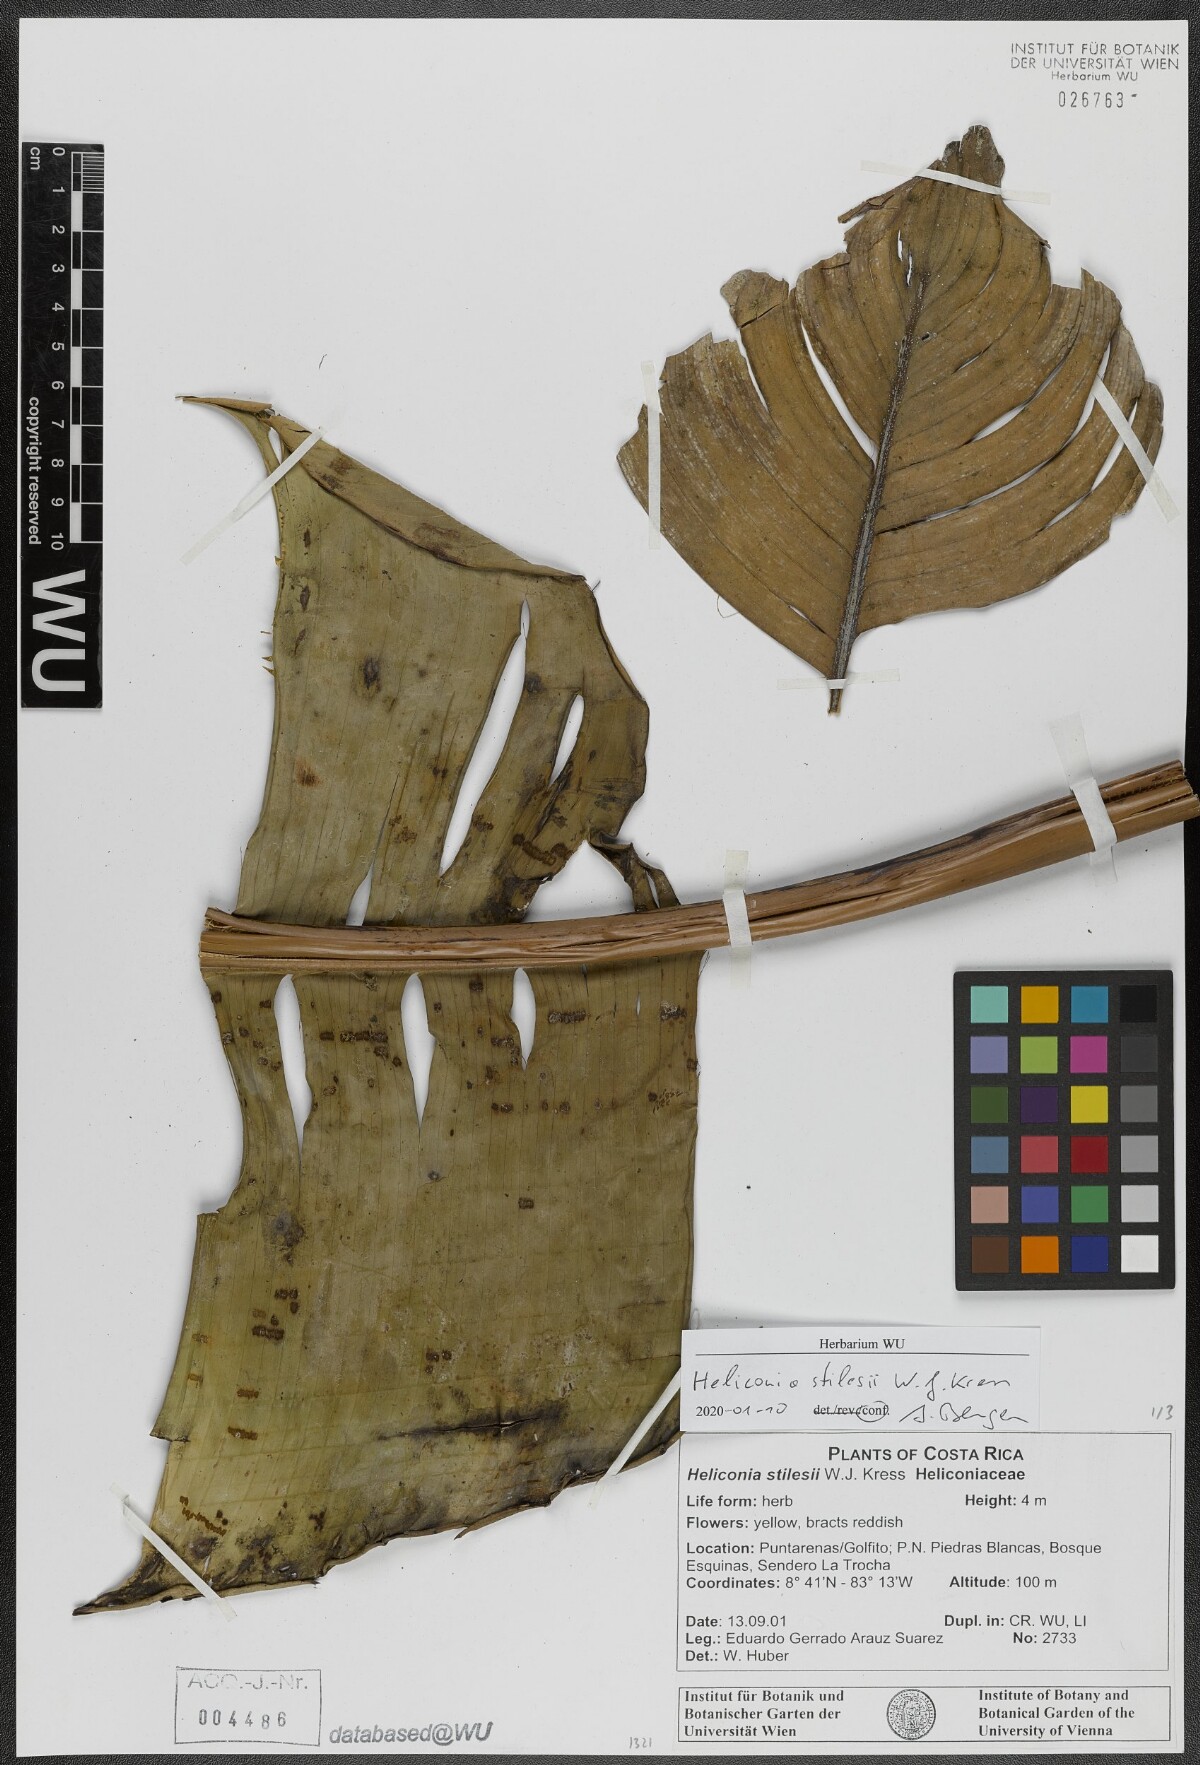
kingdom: Plantae
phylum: Tracheophyta
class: Liliopsida
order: Zingiberales
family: Heliconiaceae
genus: Heliconia
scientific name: Heliconia stilesii
